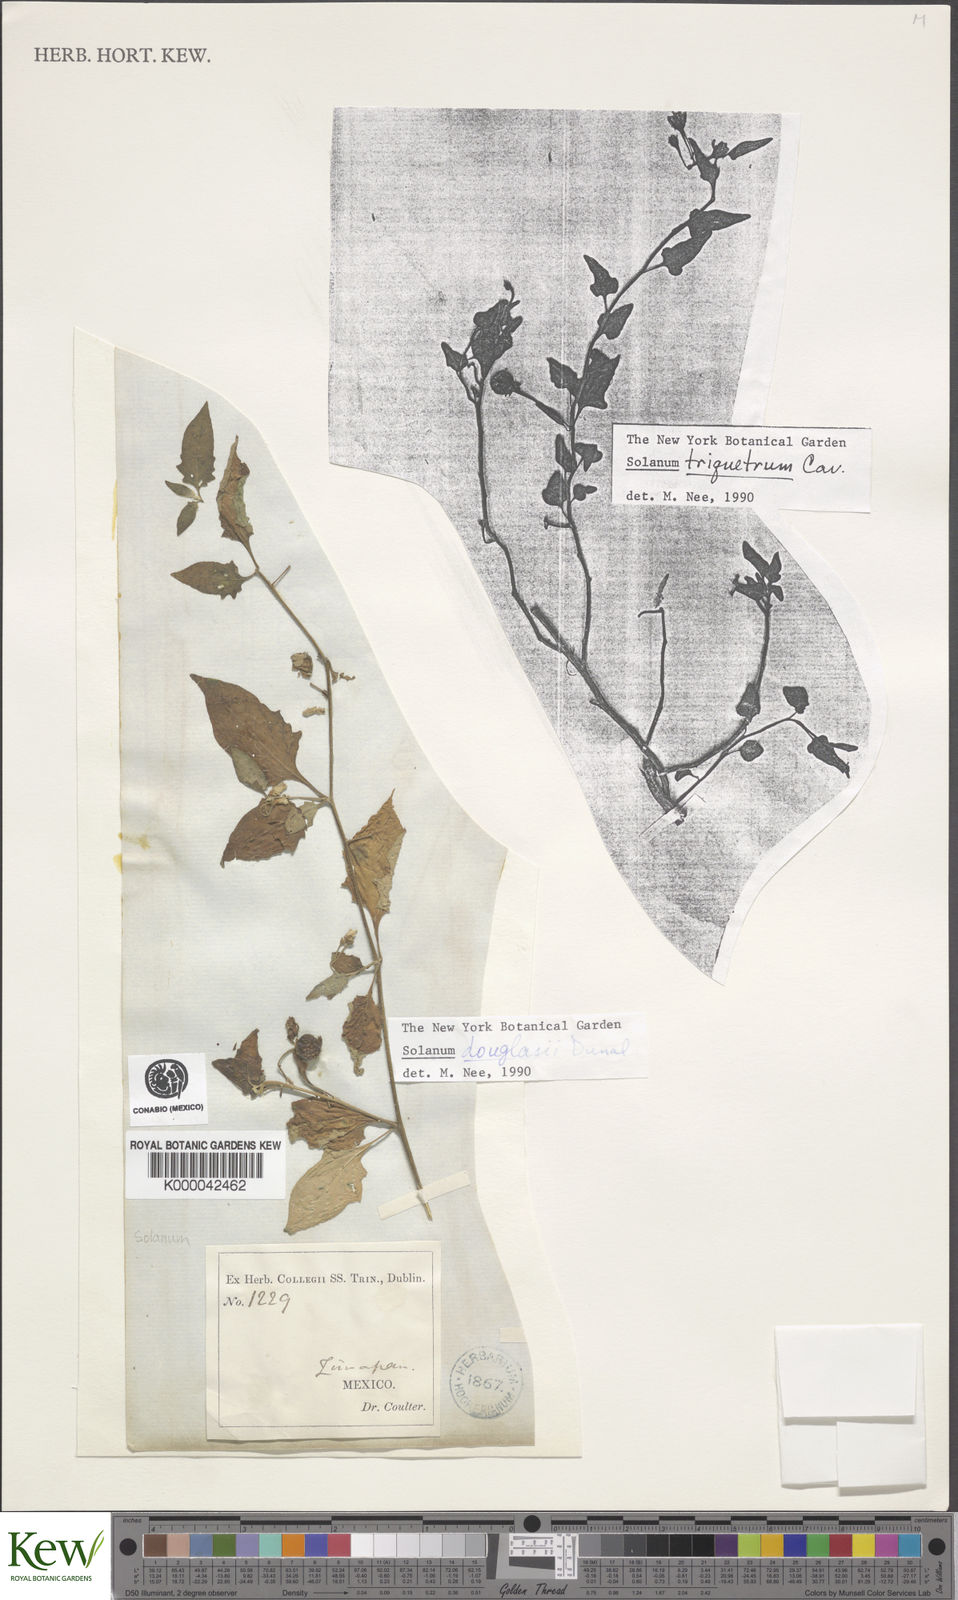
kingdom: Plantae
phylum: Tracheophyta
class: Magnoliopsida
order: Solanales
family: Solanaceae
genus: Solanum
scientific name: Solanum douglasii
